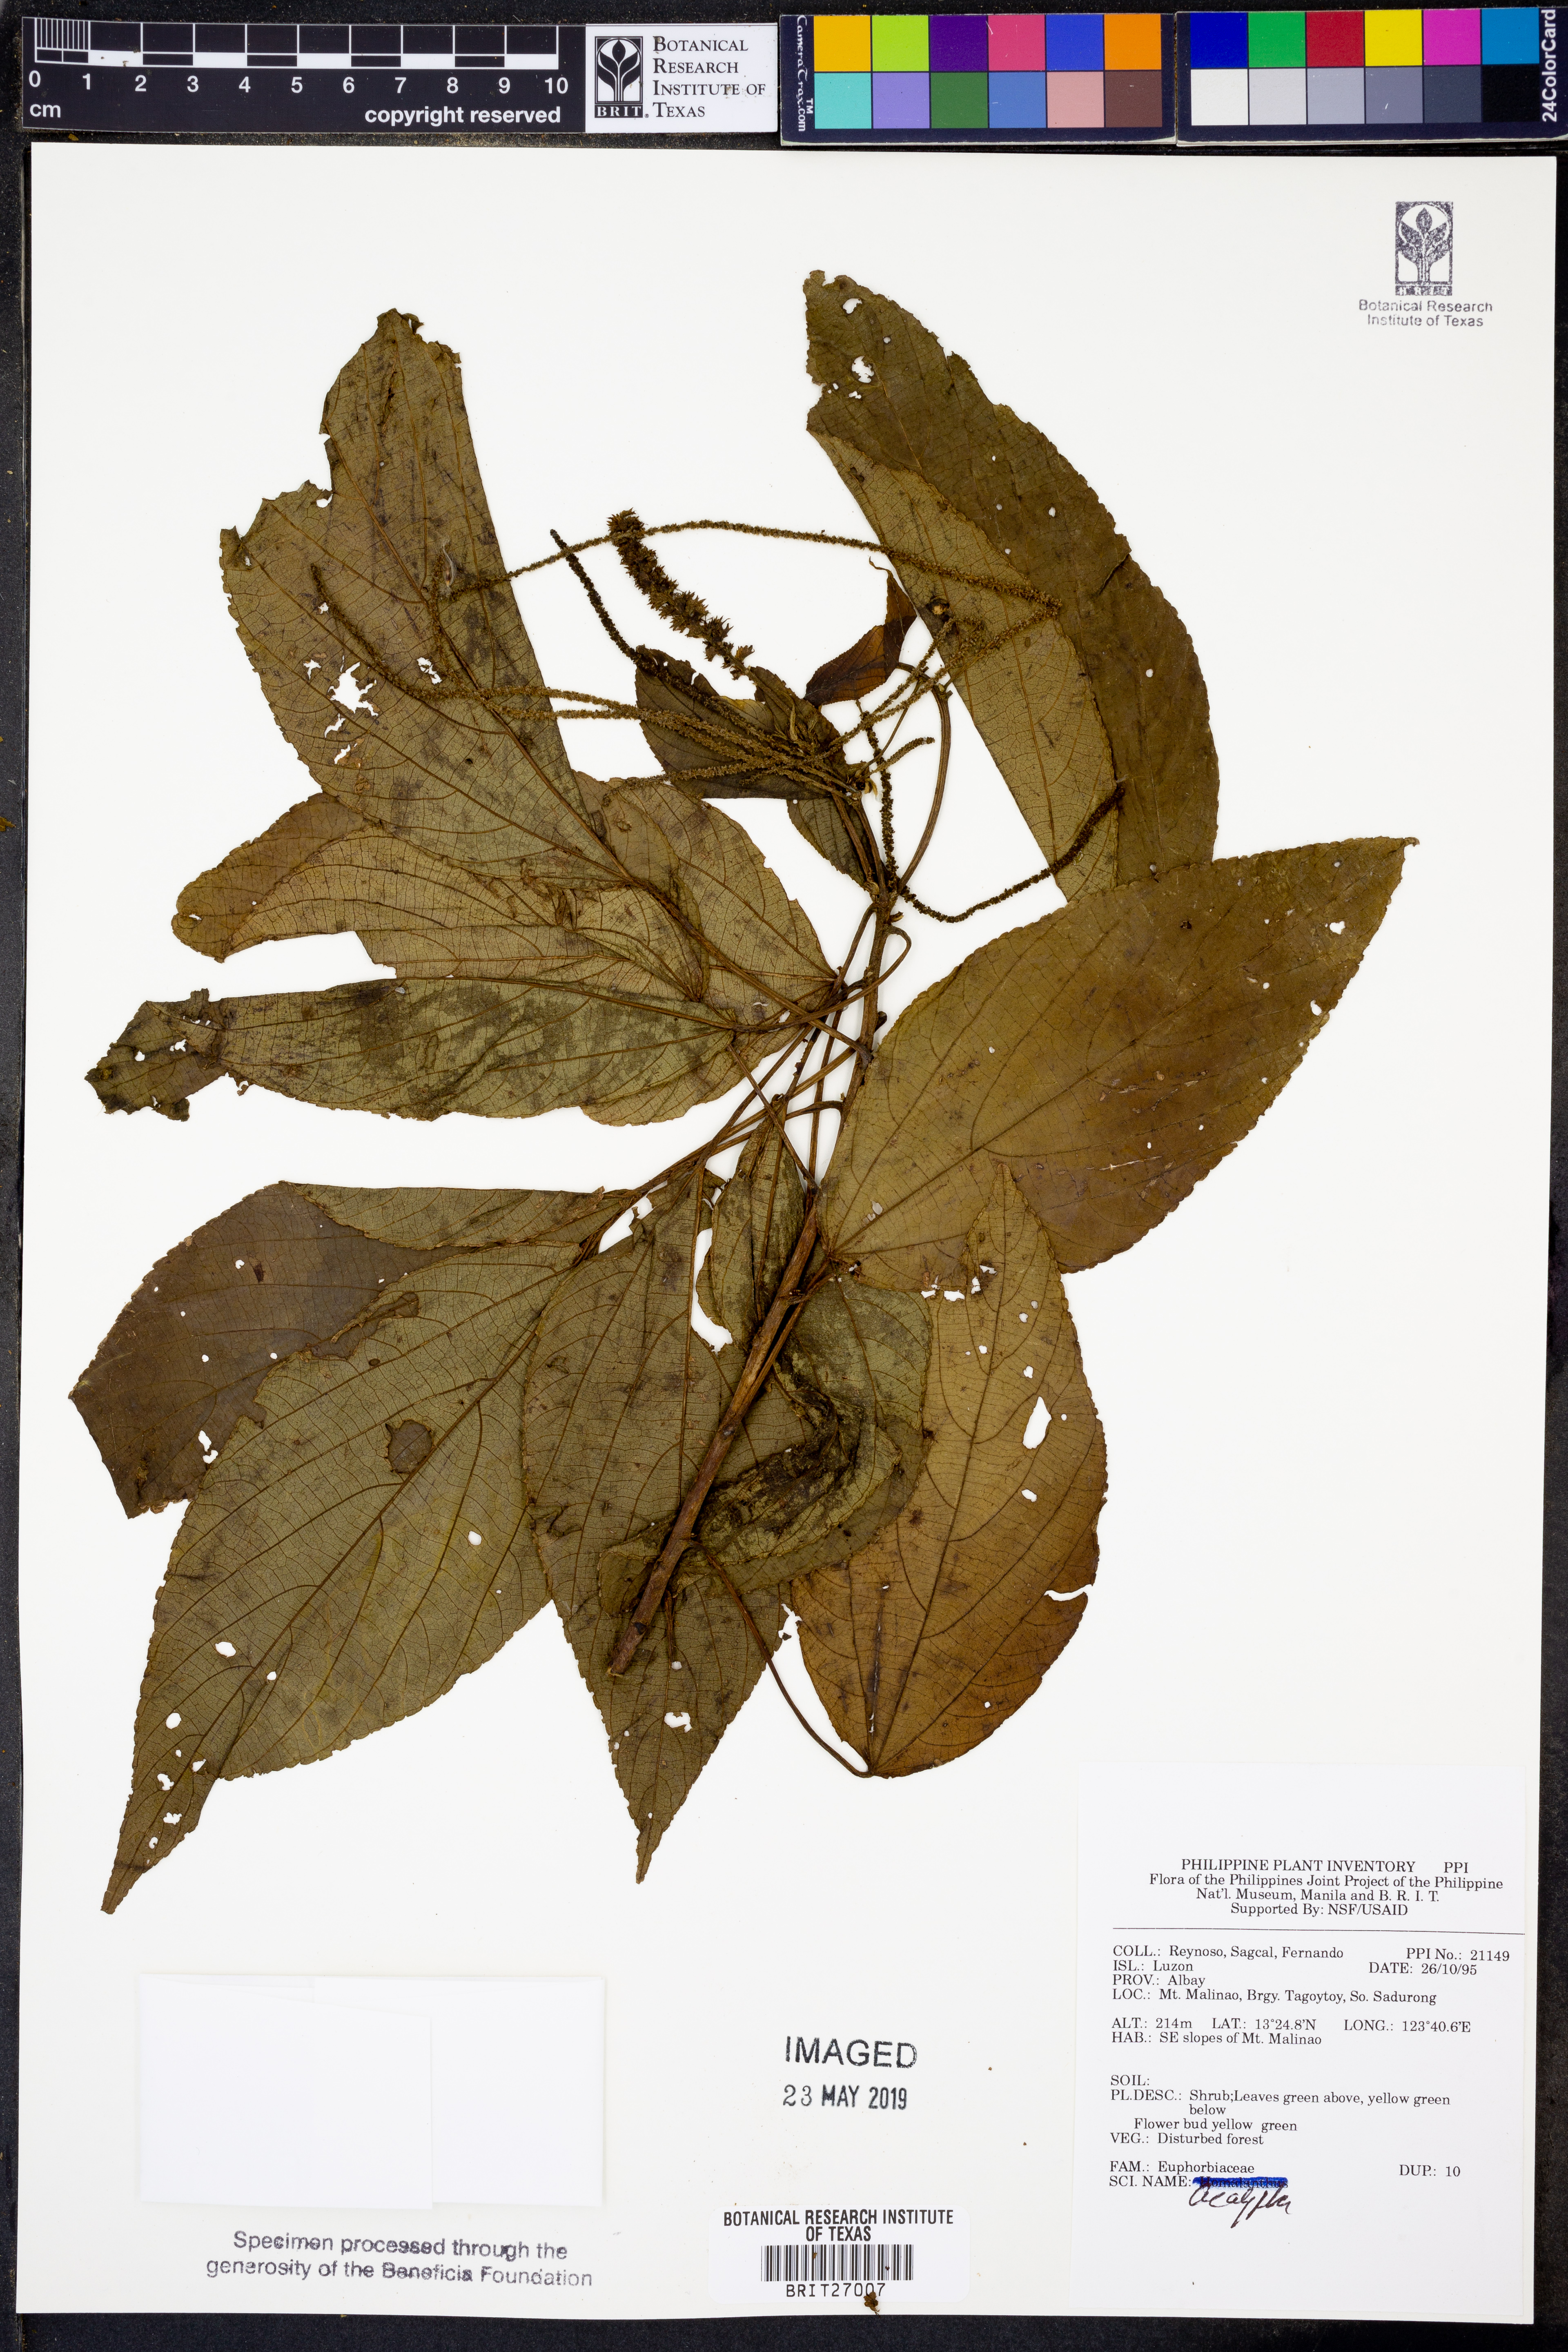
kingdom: Plantae
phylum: Tracheophyta
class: Magnoliopsida
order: Malpighiales
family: Euphorbiaceae
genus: Acalypha
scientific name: Acalypha
